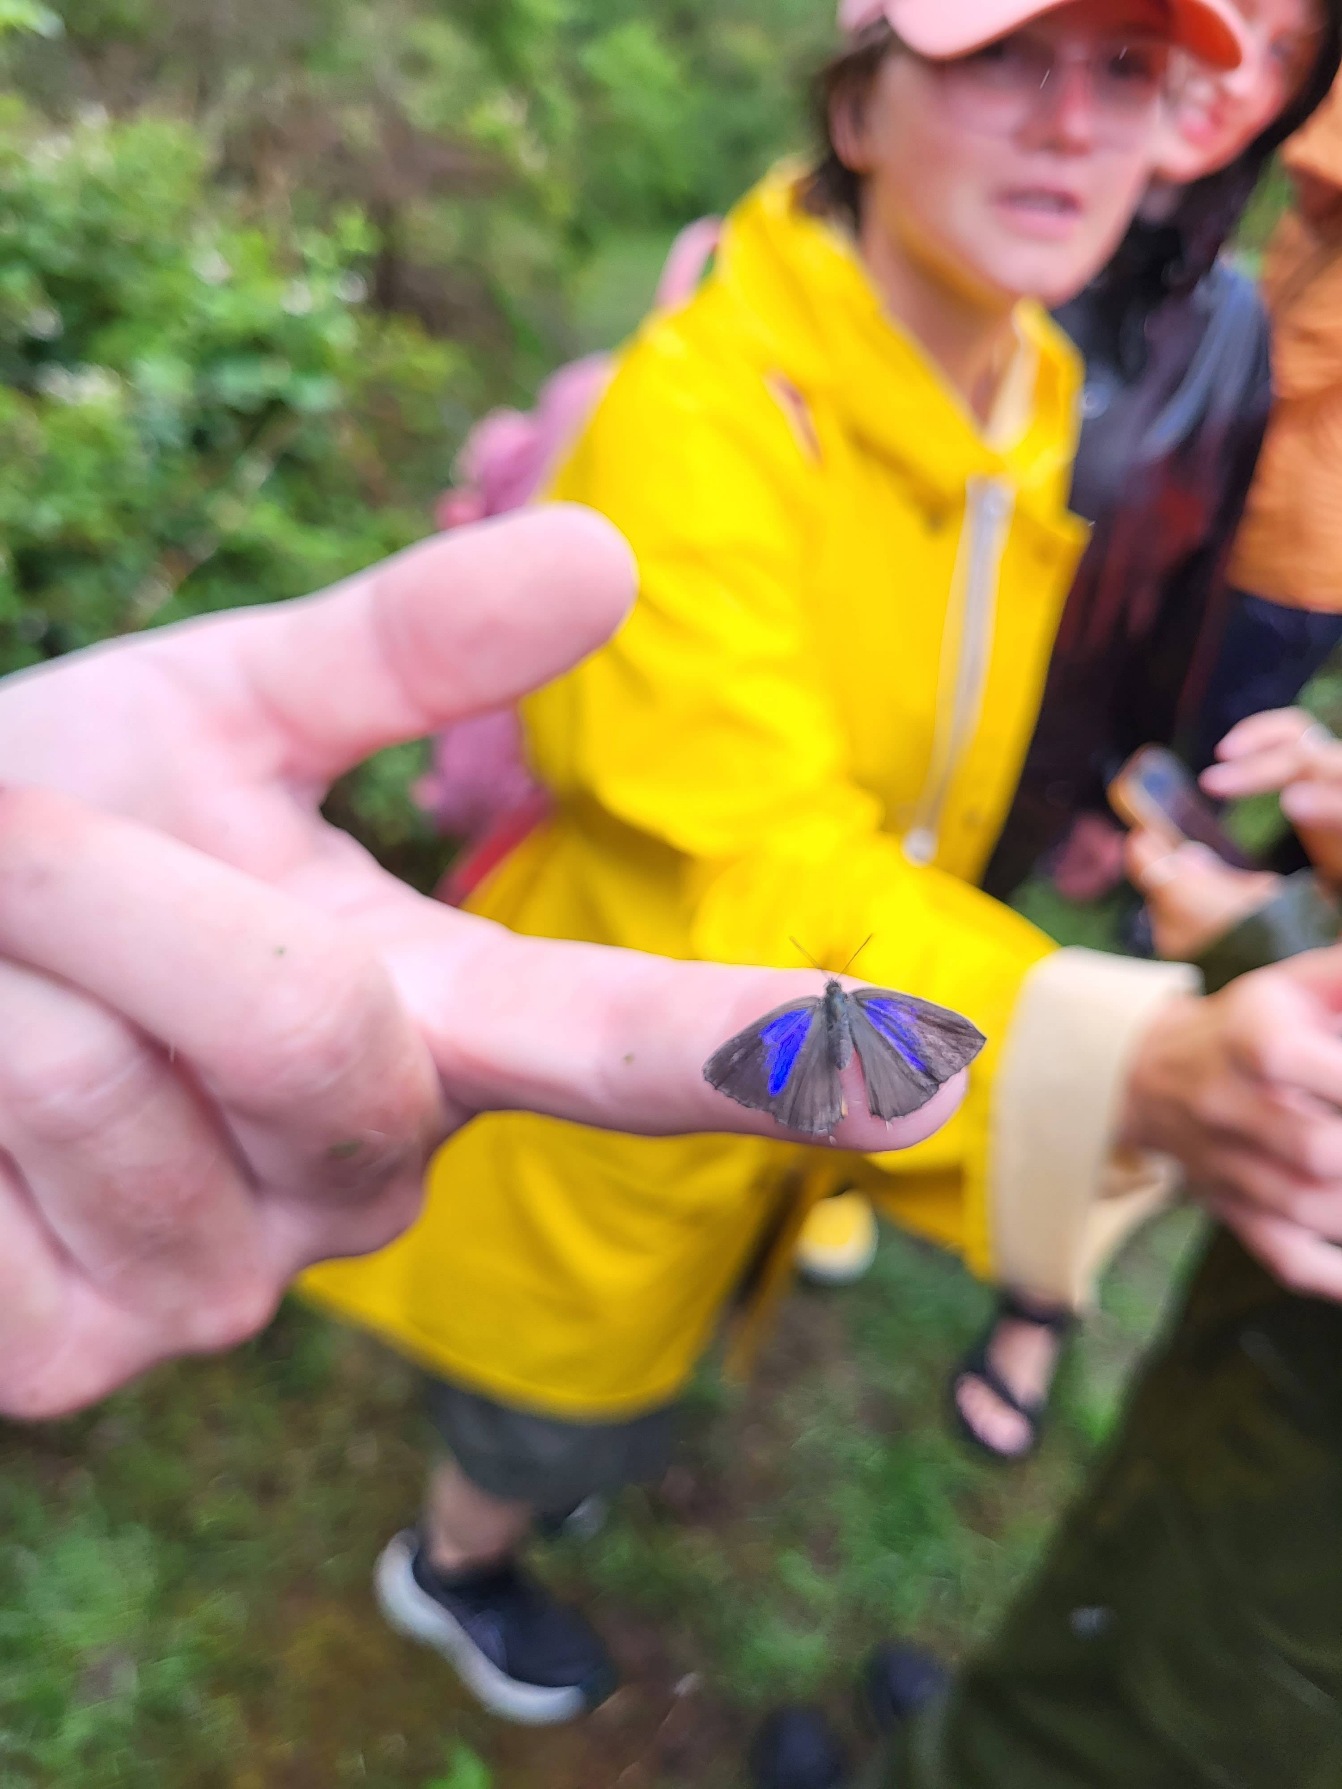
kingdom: Animalia
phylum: Arthropoda
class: Insecta
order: Lepidoptera
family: Lycaenidae
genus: Quercusia
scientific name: Quercusia quercus
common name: Blåhale
